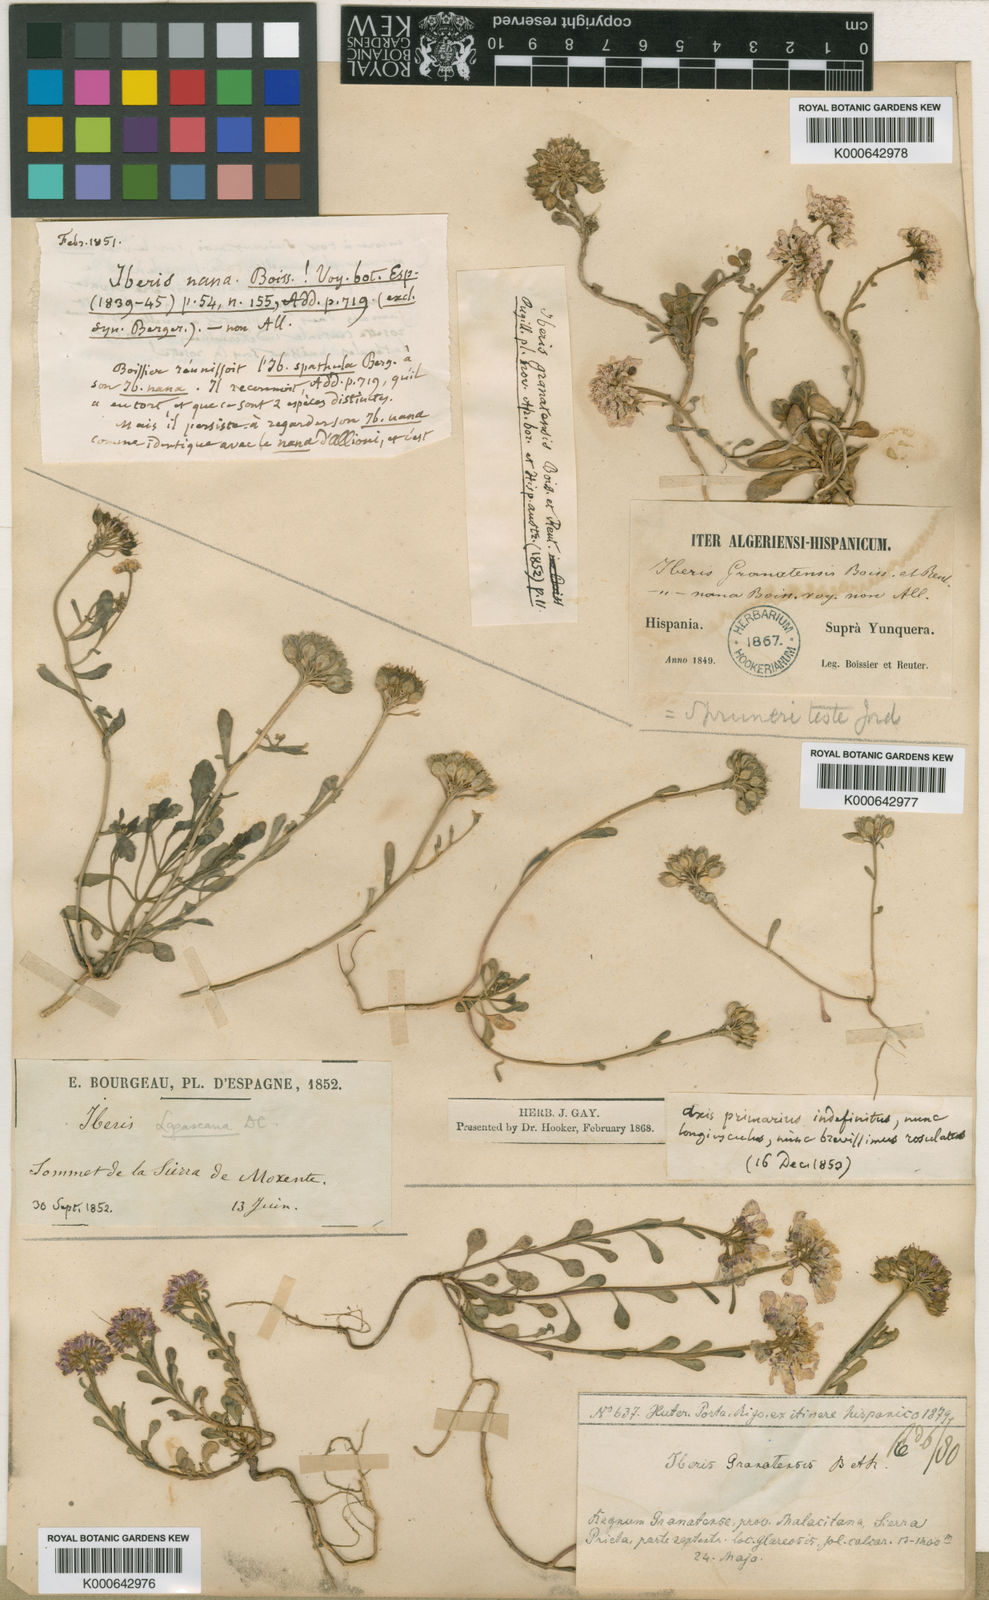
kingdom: Plantae
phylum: Tracheophyta
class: Magnoliopsida
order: Brassicales
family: Brassicaceae
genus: Iberis
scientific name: Iberis carnosa
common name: Pruit's candytuft
